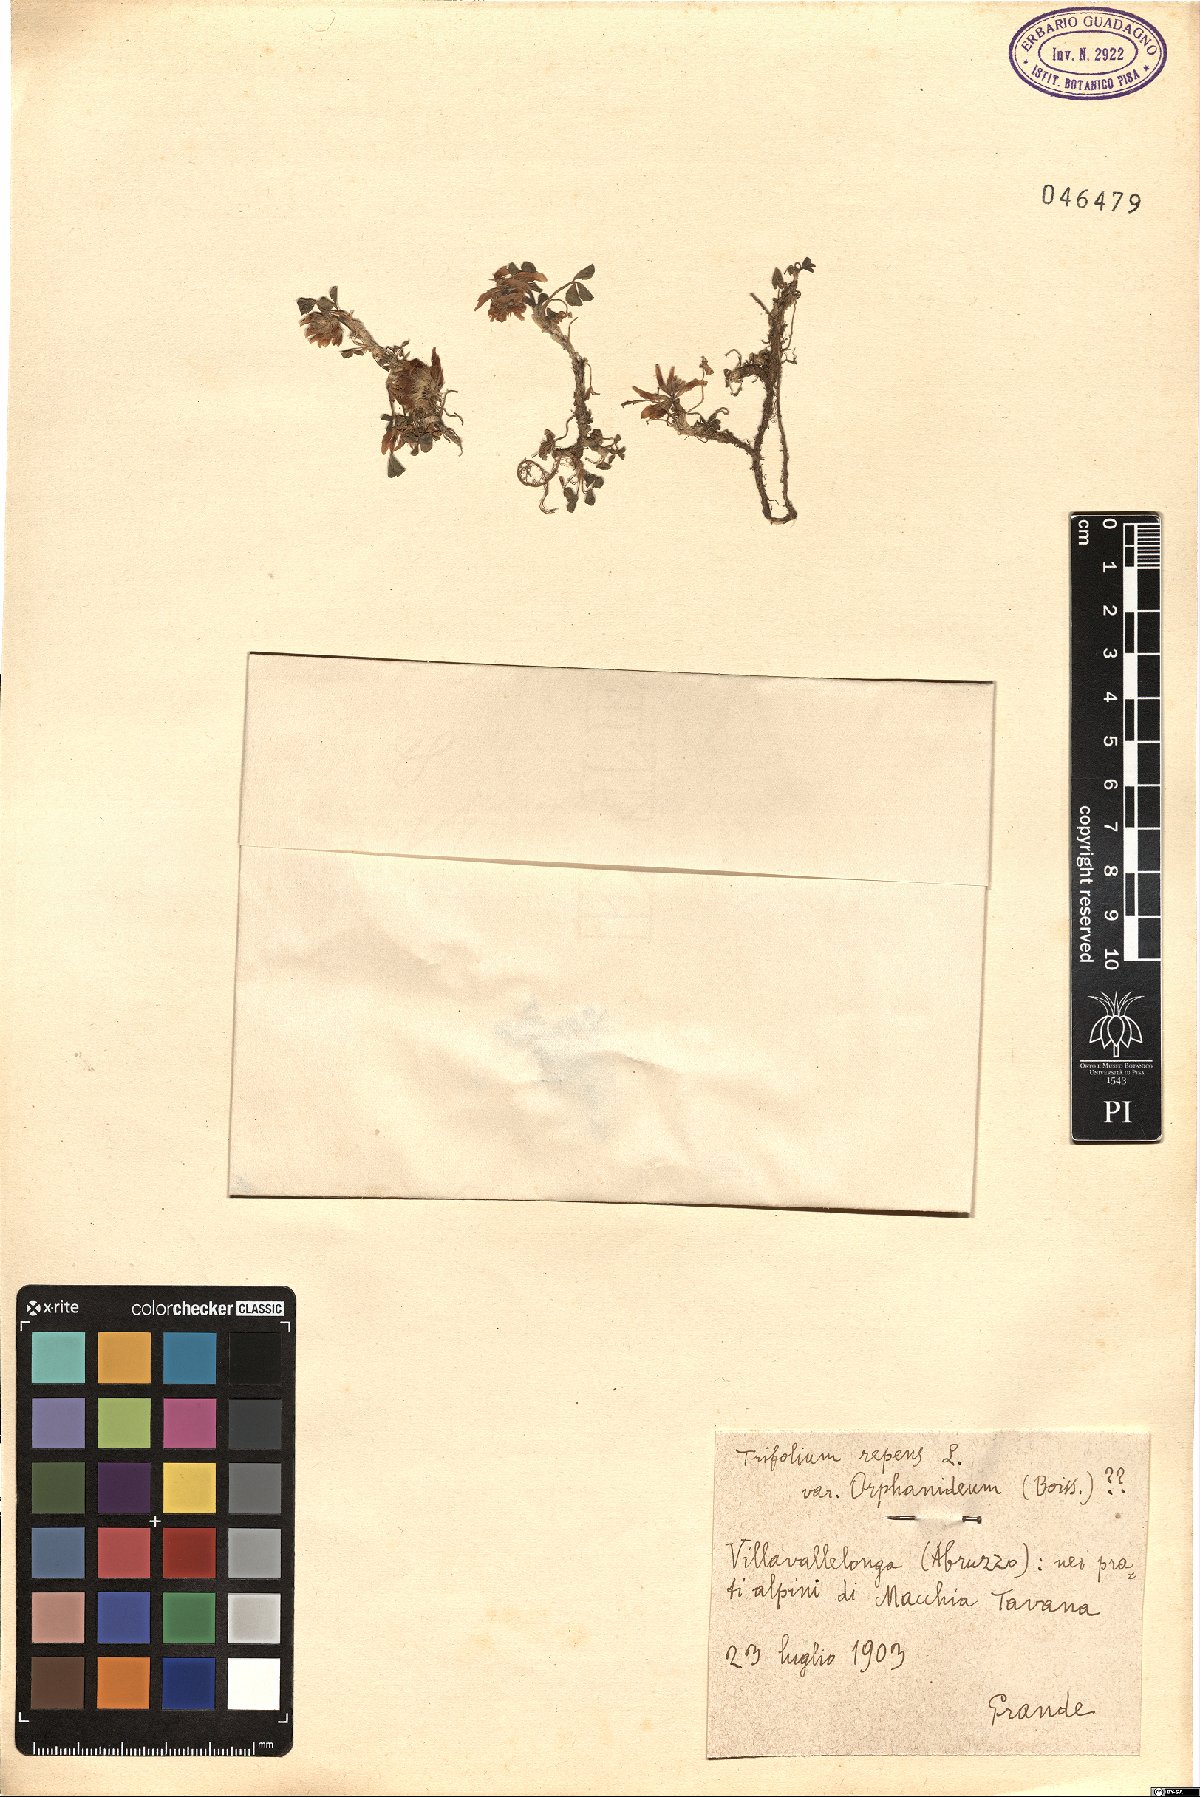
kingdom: Plantae
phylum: Tracheophyta
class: Magnoliopsida
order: Fabales
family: Fabaceae
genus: Trifolium
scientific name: Trifolium repens
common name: White clover
